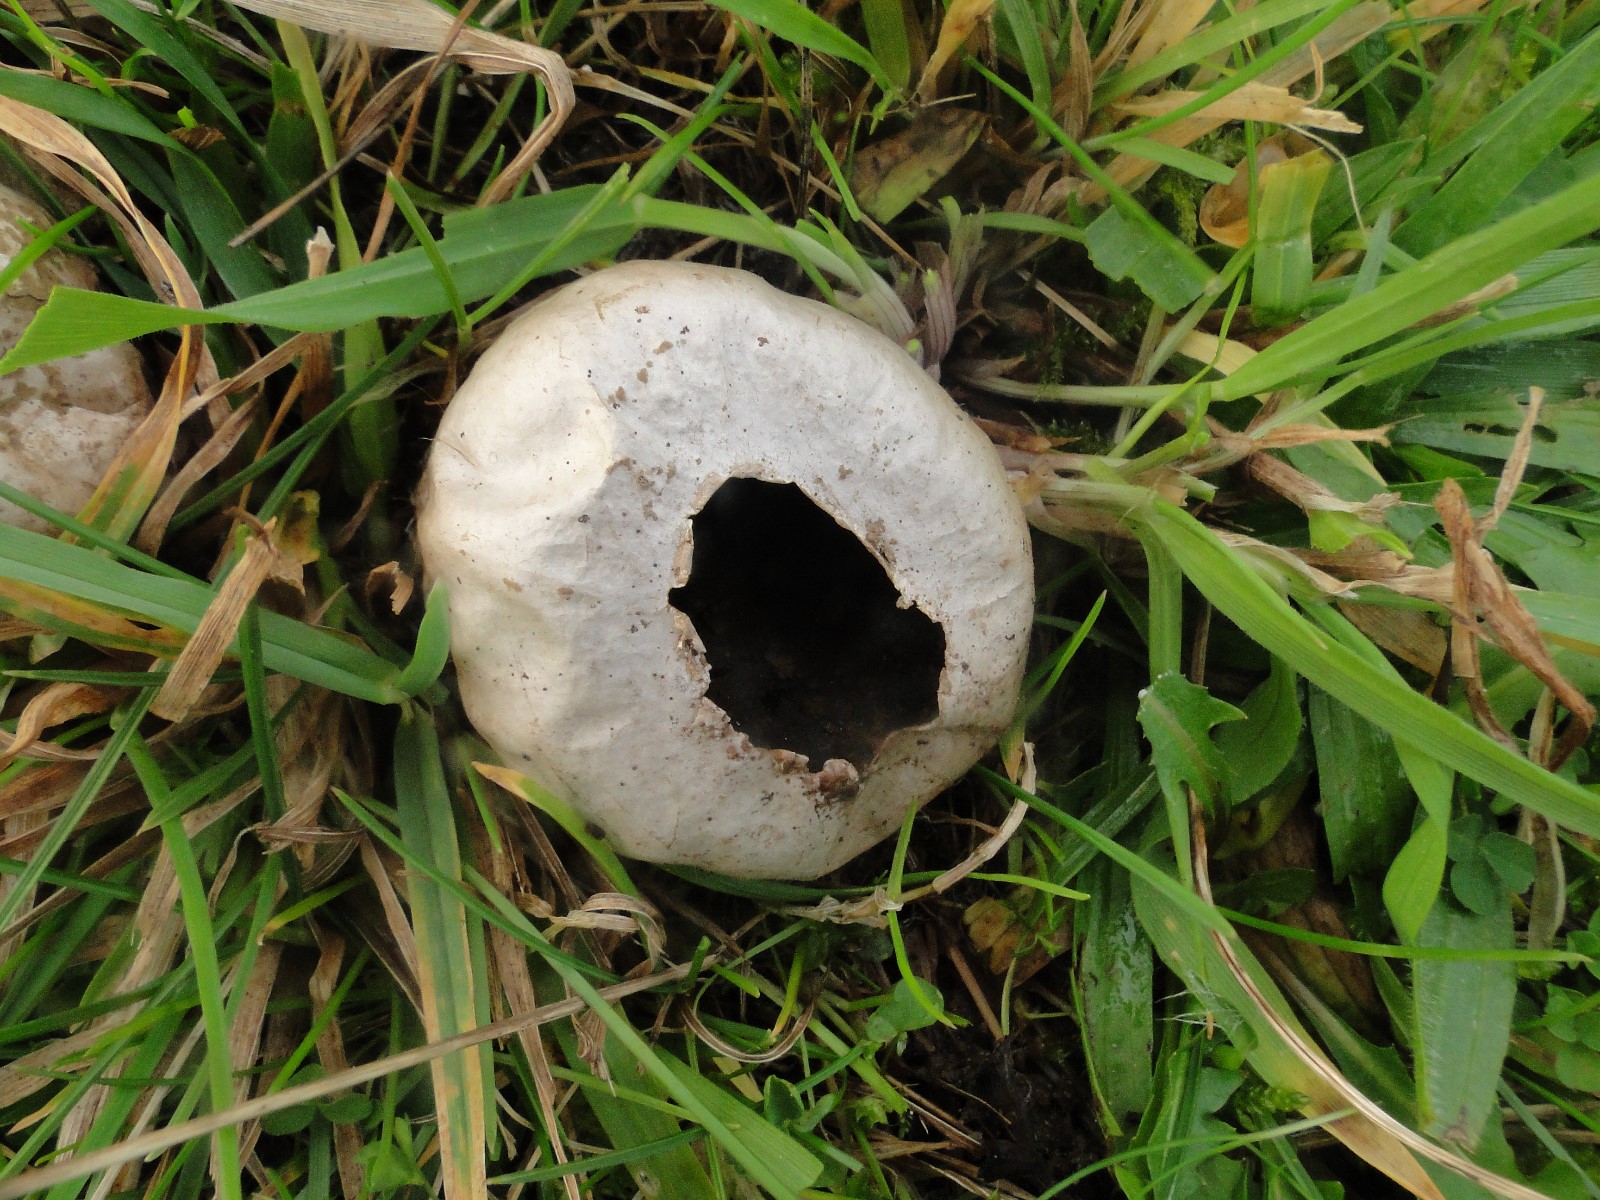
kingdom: Fungi
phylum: Basidiomycota
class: Agaricomycetes
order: Agaricales
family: Lycoperdaceae
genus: Lycoperdon
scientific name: Lycoperdon pratense
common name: flad støvbold
